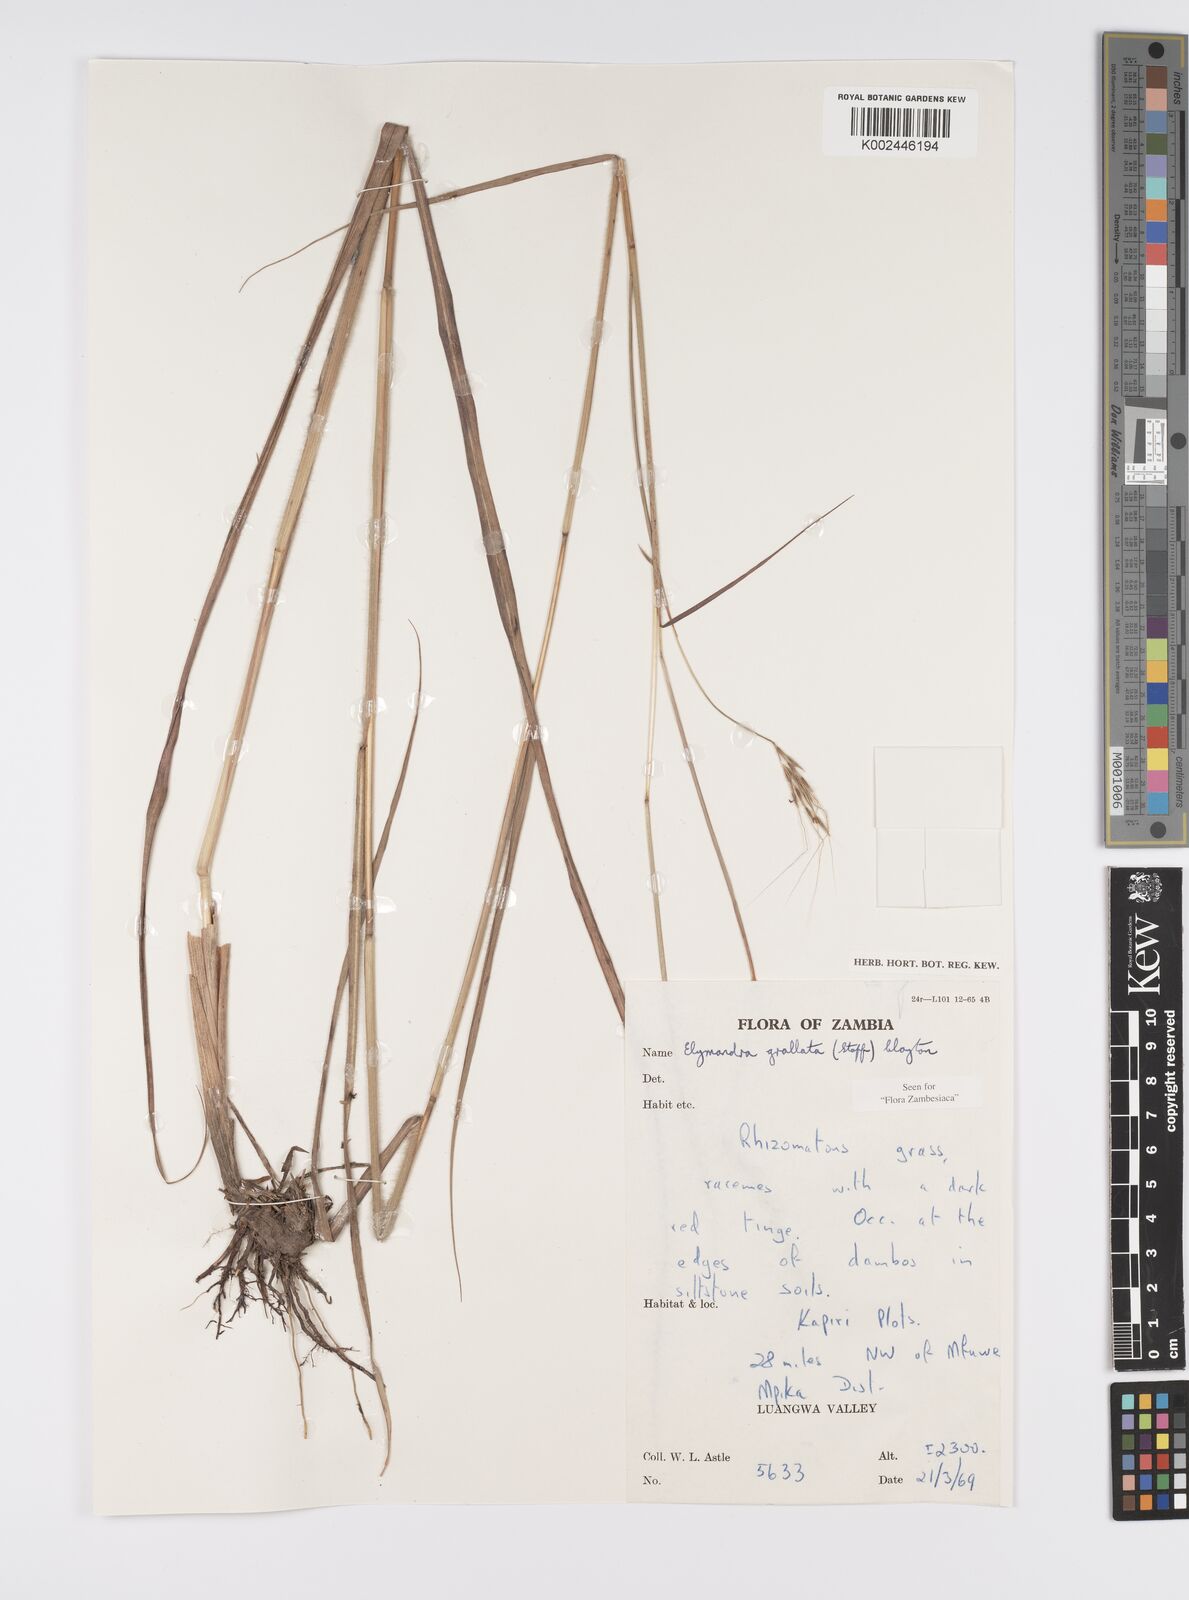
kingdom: Plantae
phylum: Tracheophyta
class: Liliopsida
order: Poales
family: Poaceae
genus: Elymandra
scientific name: Elymandra grallata
